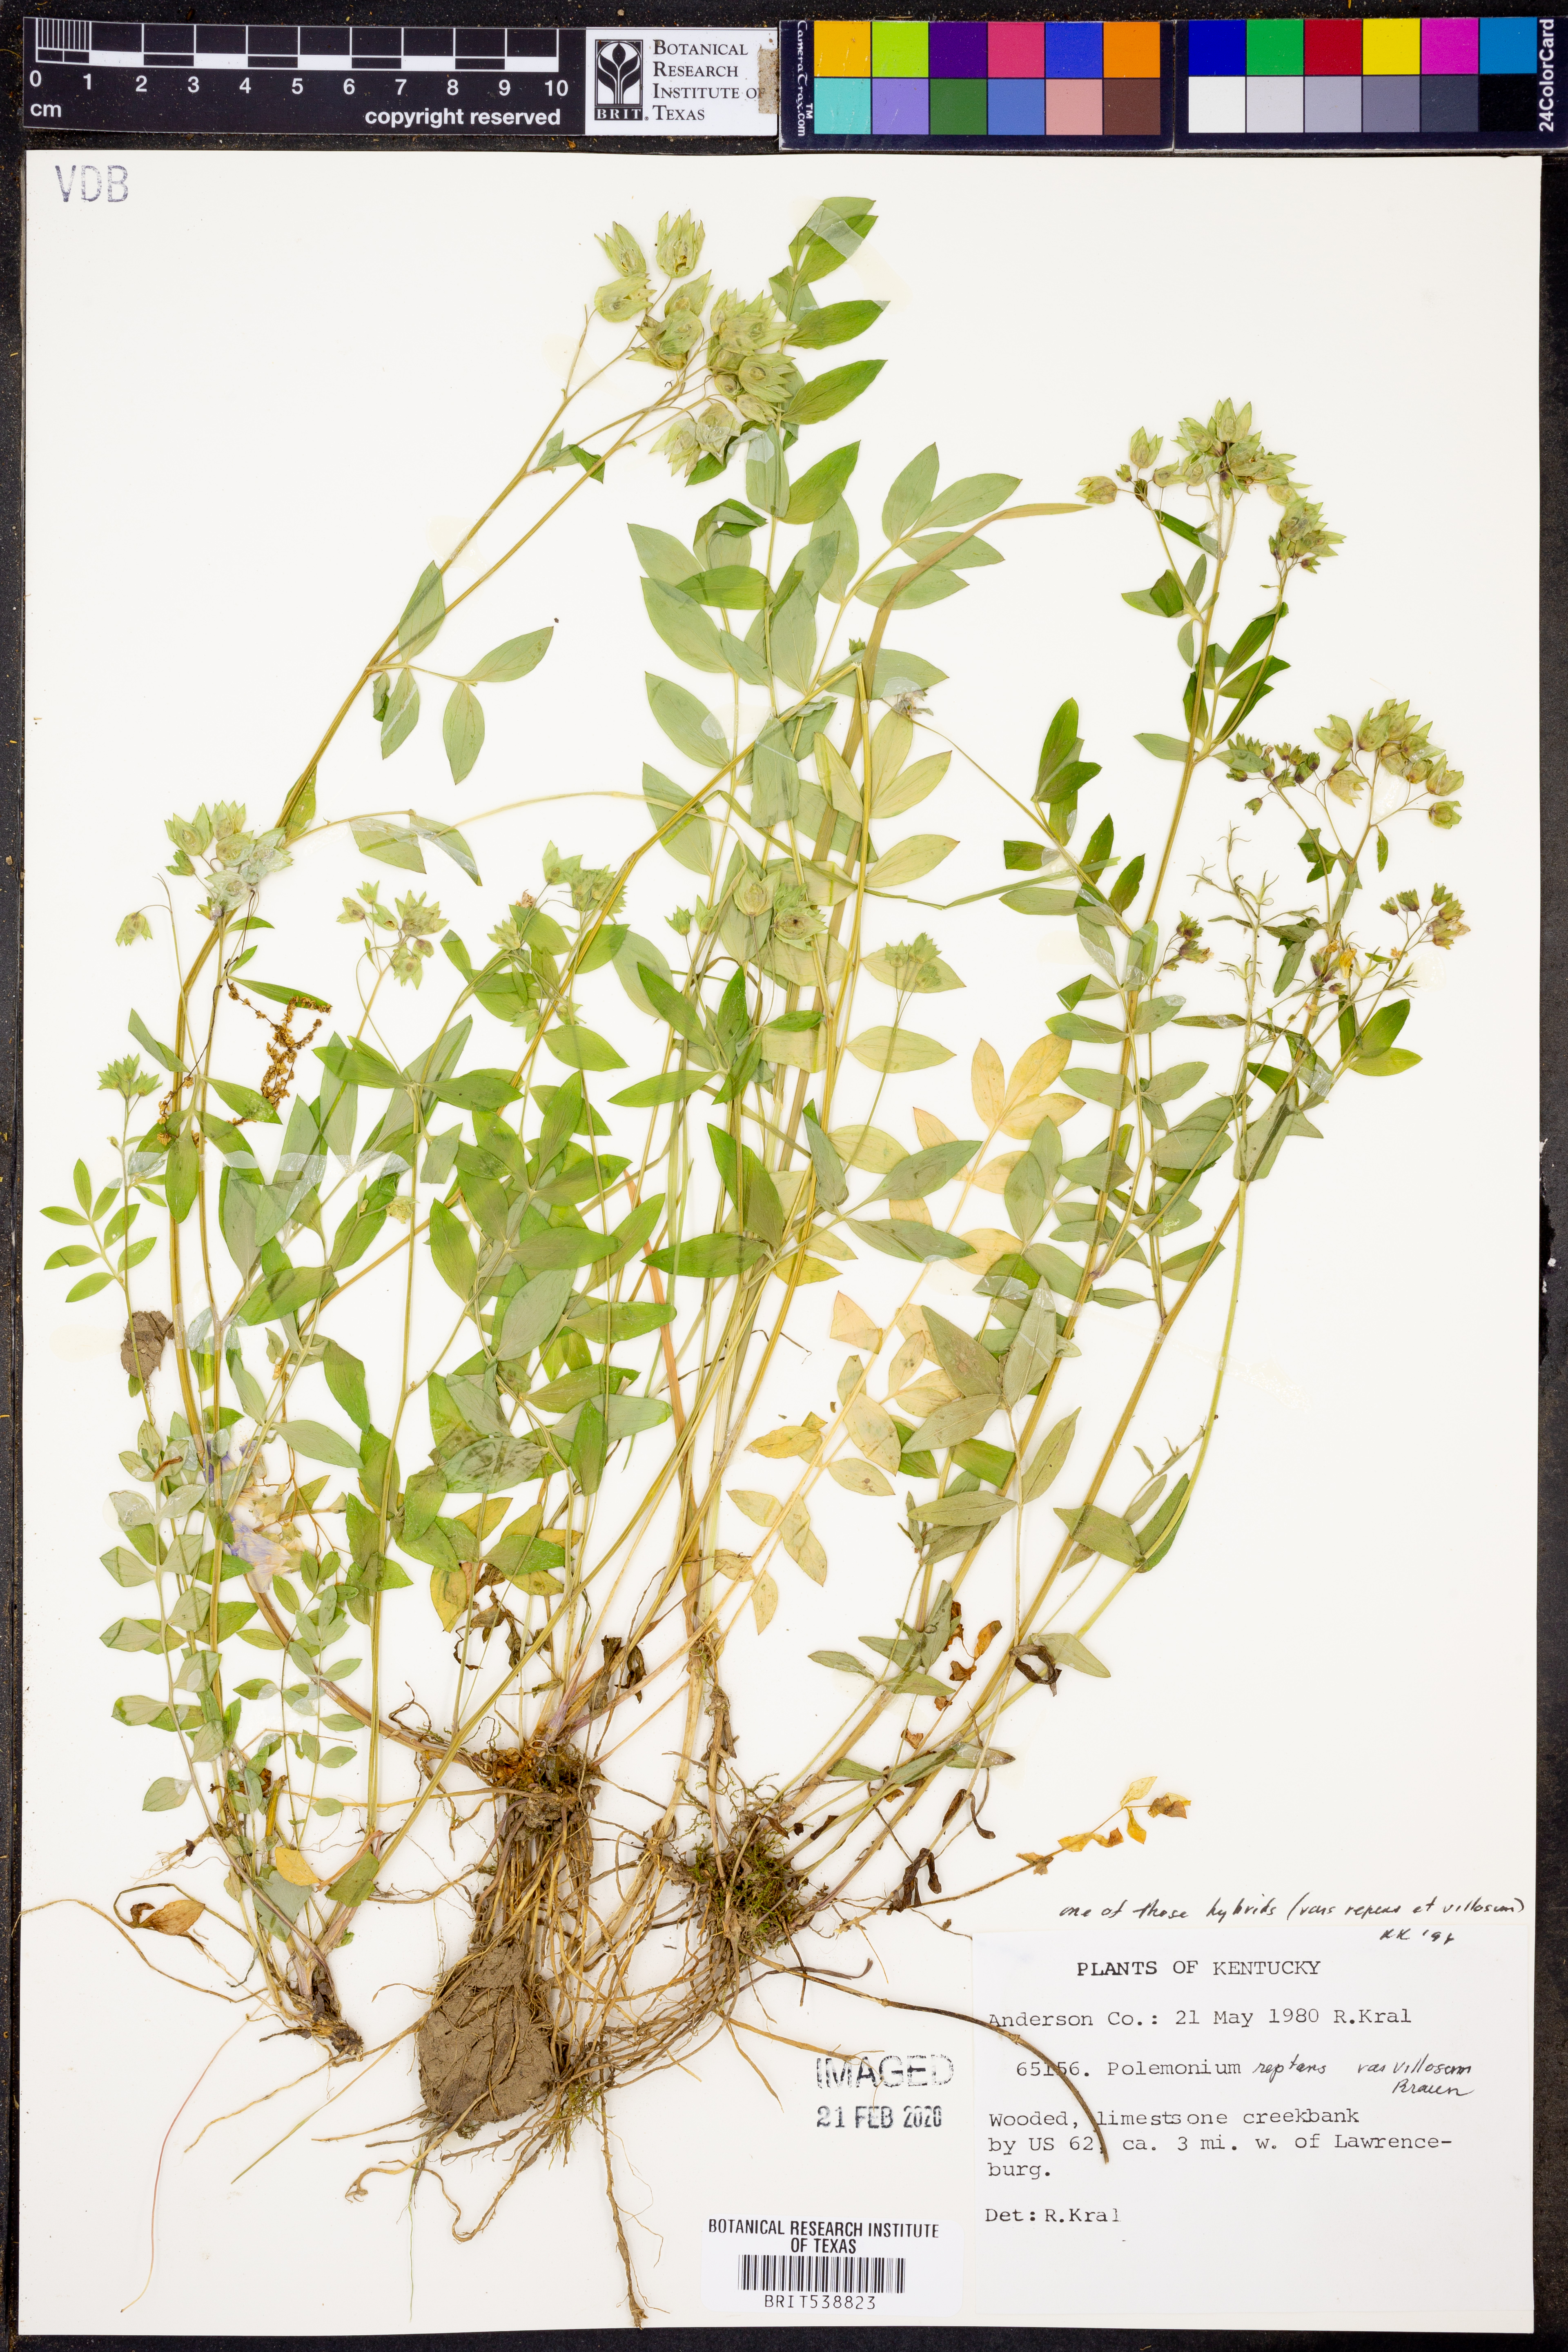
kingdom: Plantae
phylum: Tracheophyta
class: Magnoliopsida
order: Ericales
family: Polemoniaceae
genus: Polemonium
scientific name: Polemonium reptans
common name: Creeping jacob's-ladder
